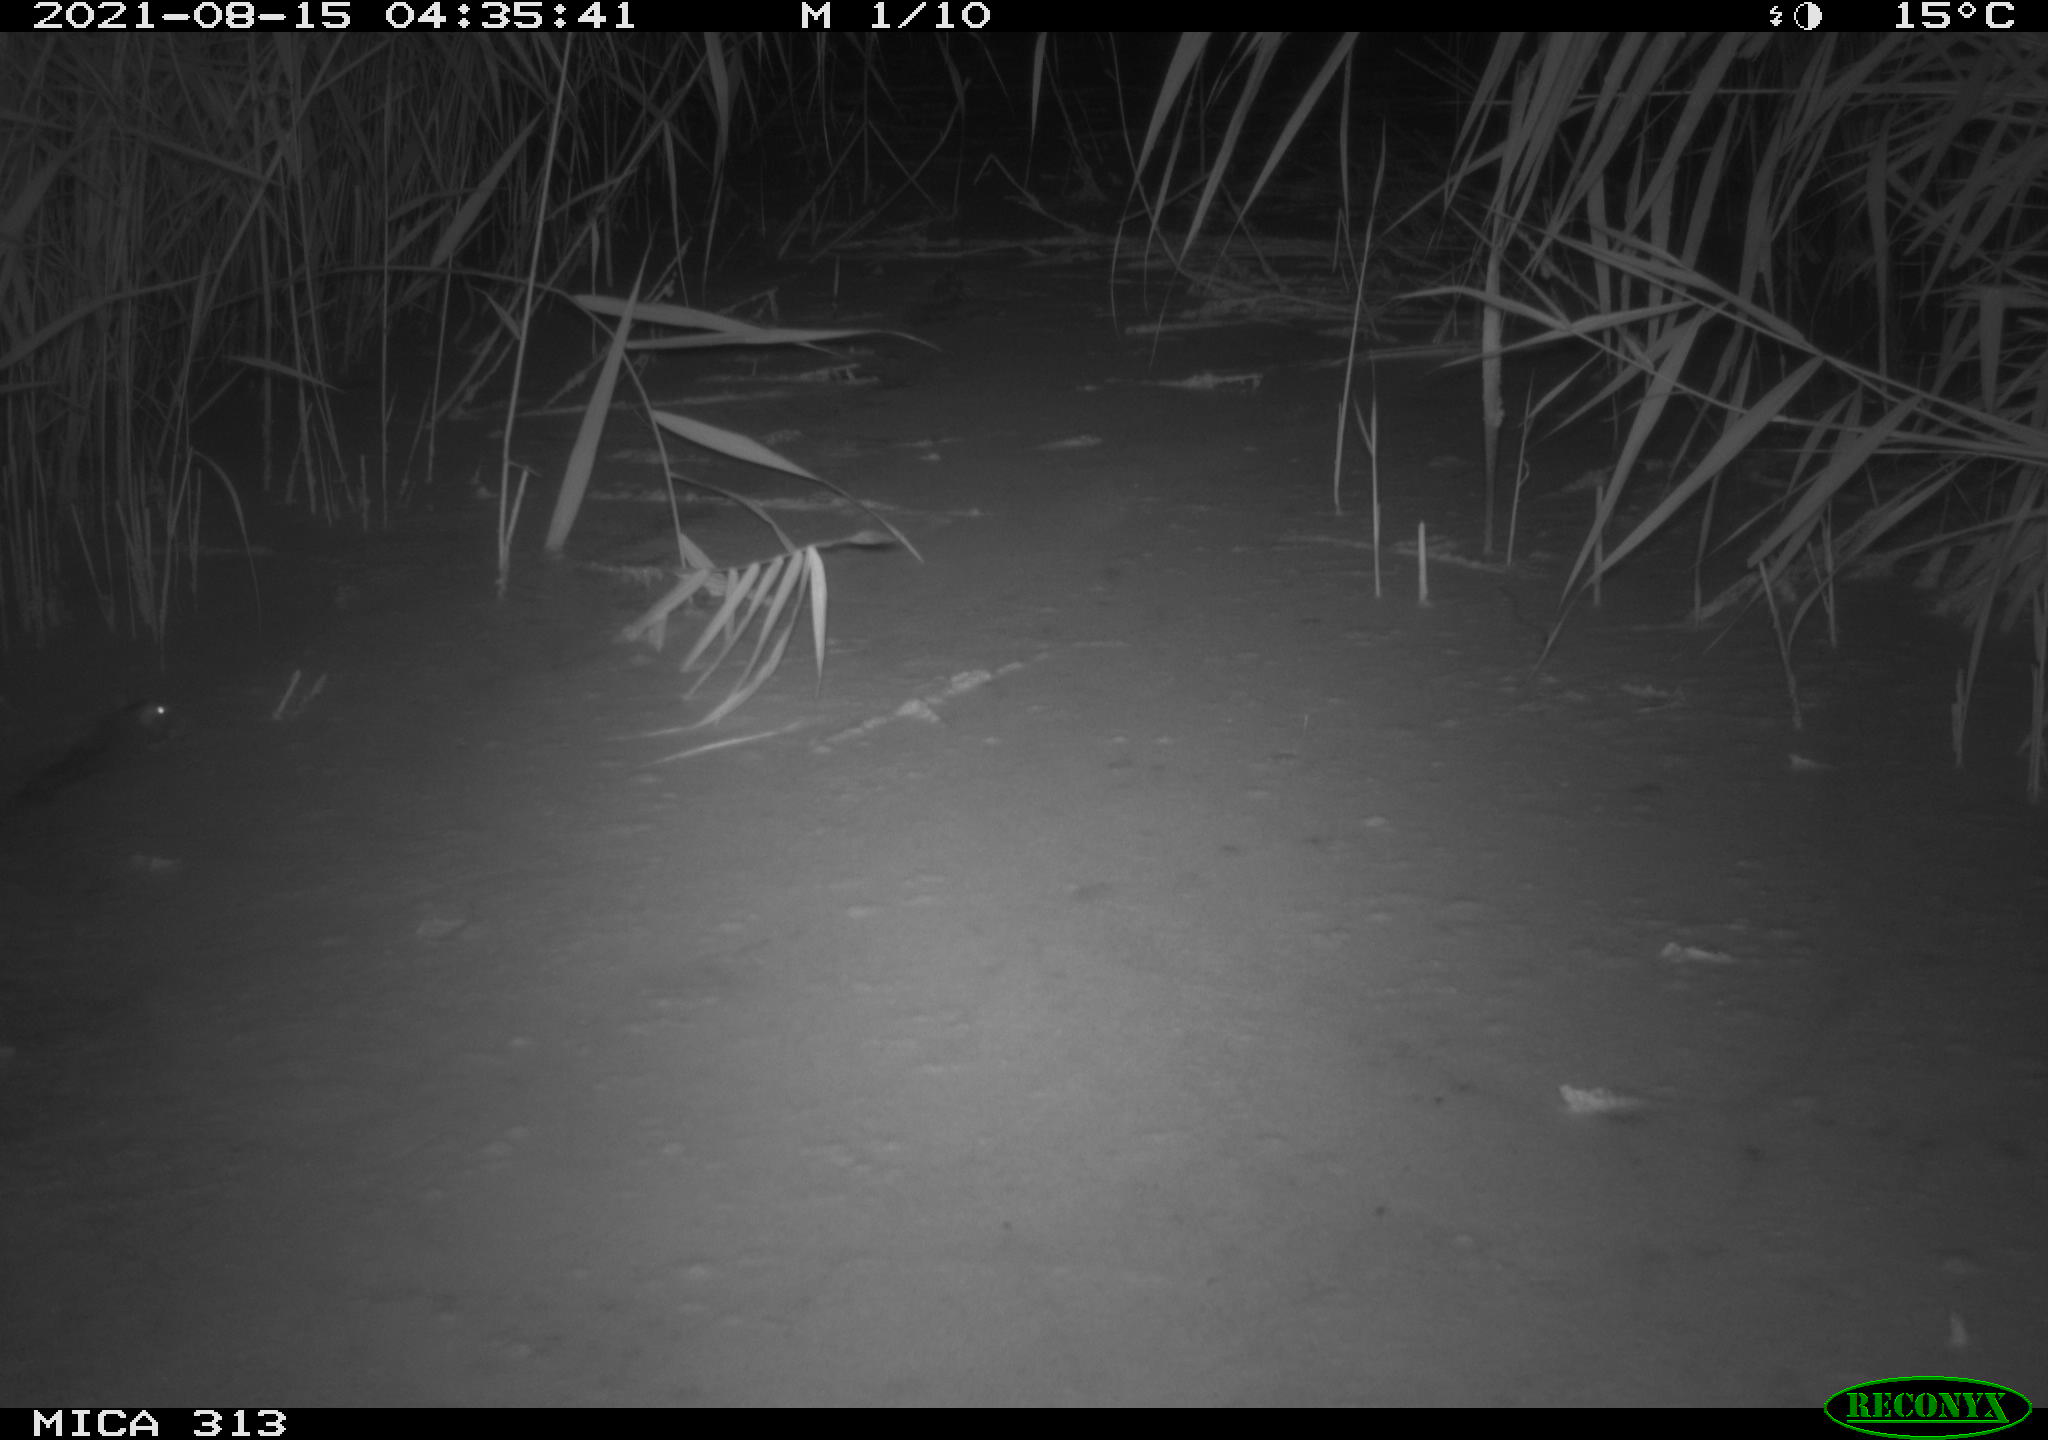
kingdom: Animalia
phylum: Chordata
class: Mammalia
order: Rodentia
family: Muridae
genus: Rattus
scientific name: Rattus norvegicus
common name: Brown rat
